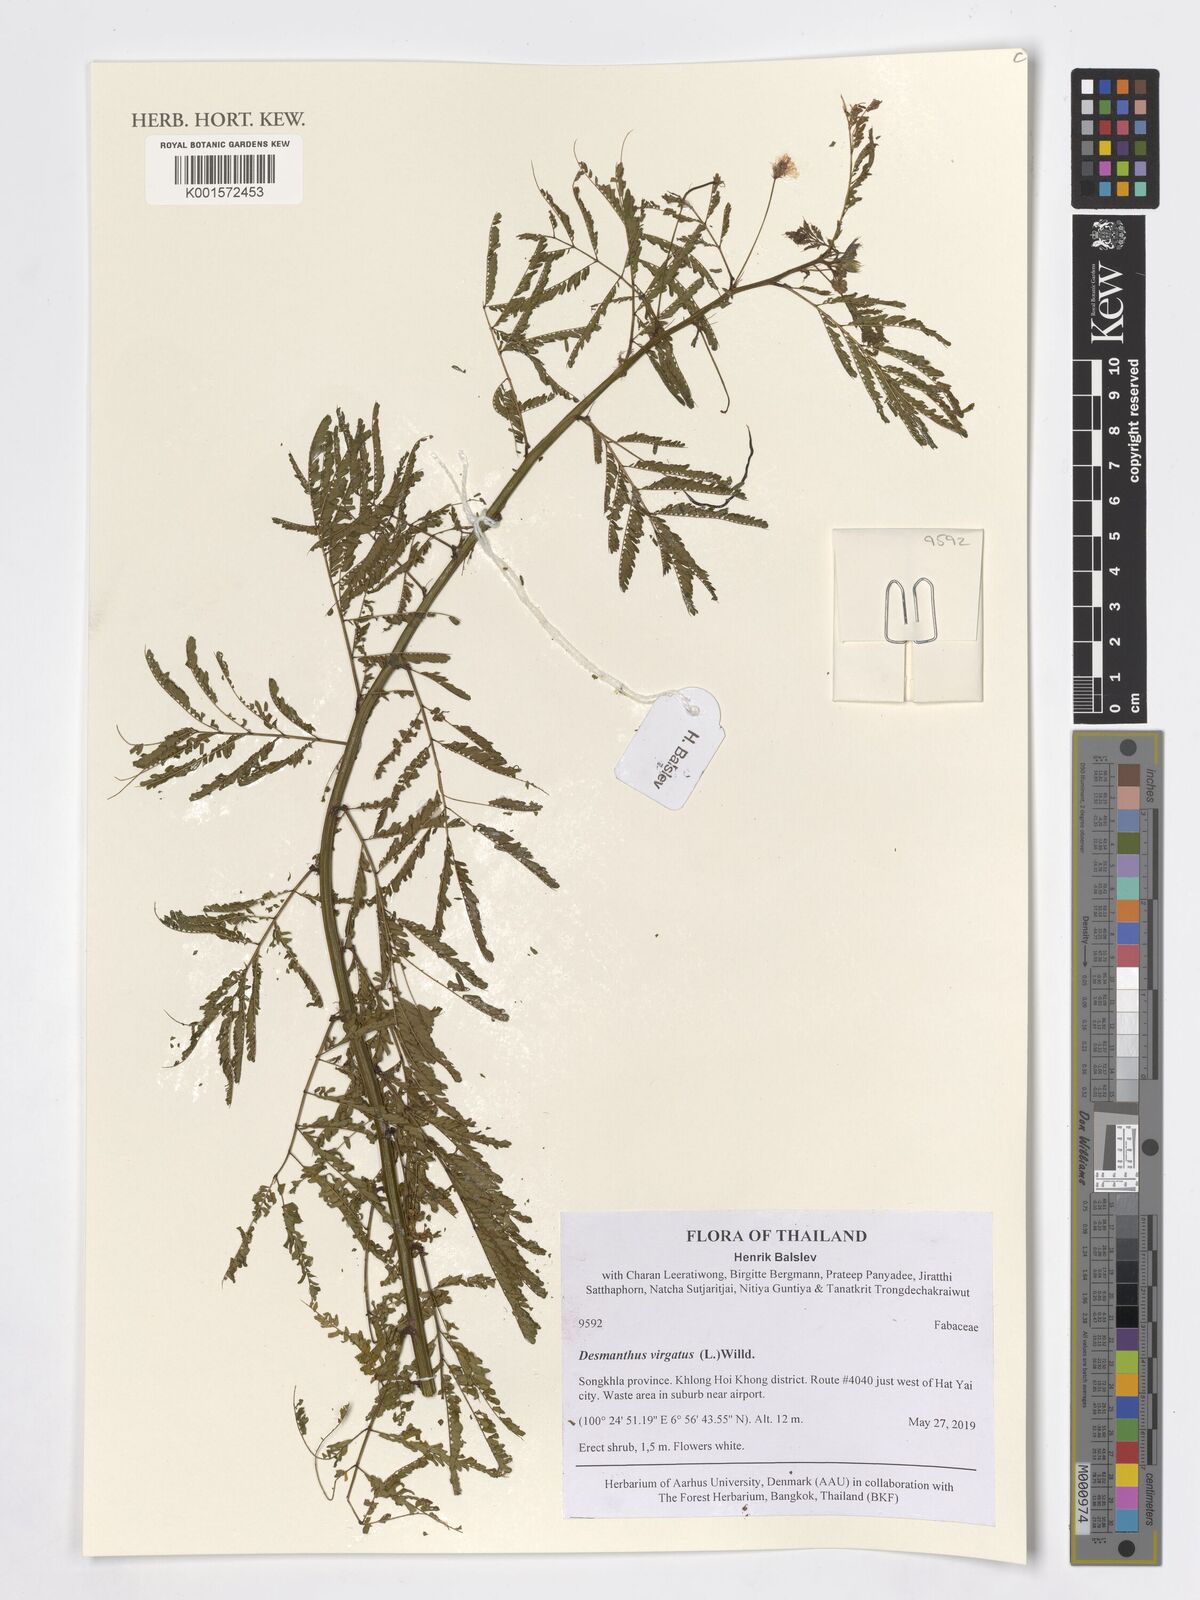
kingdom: Plantae
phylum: Tracheophyta
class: Magnoliopsida
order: Fabales
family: Fabaceae
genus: Desmanthus
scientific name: Desmanthus virgatus
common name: Wild tantan
